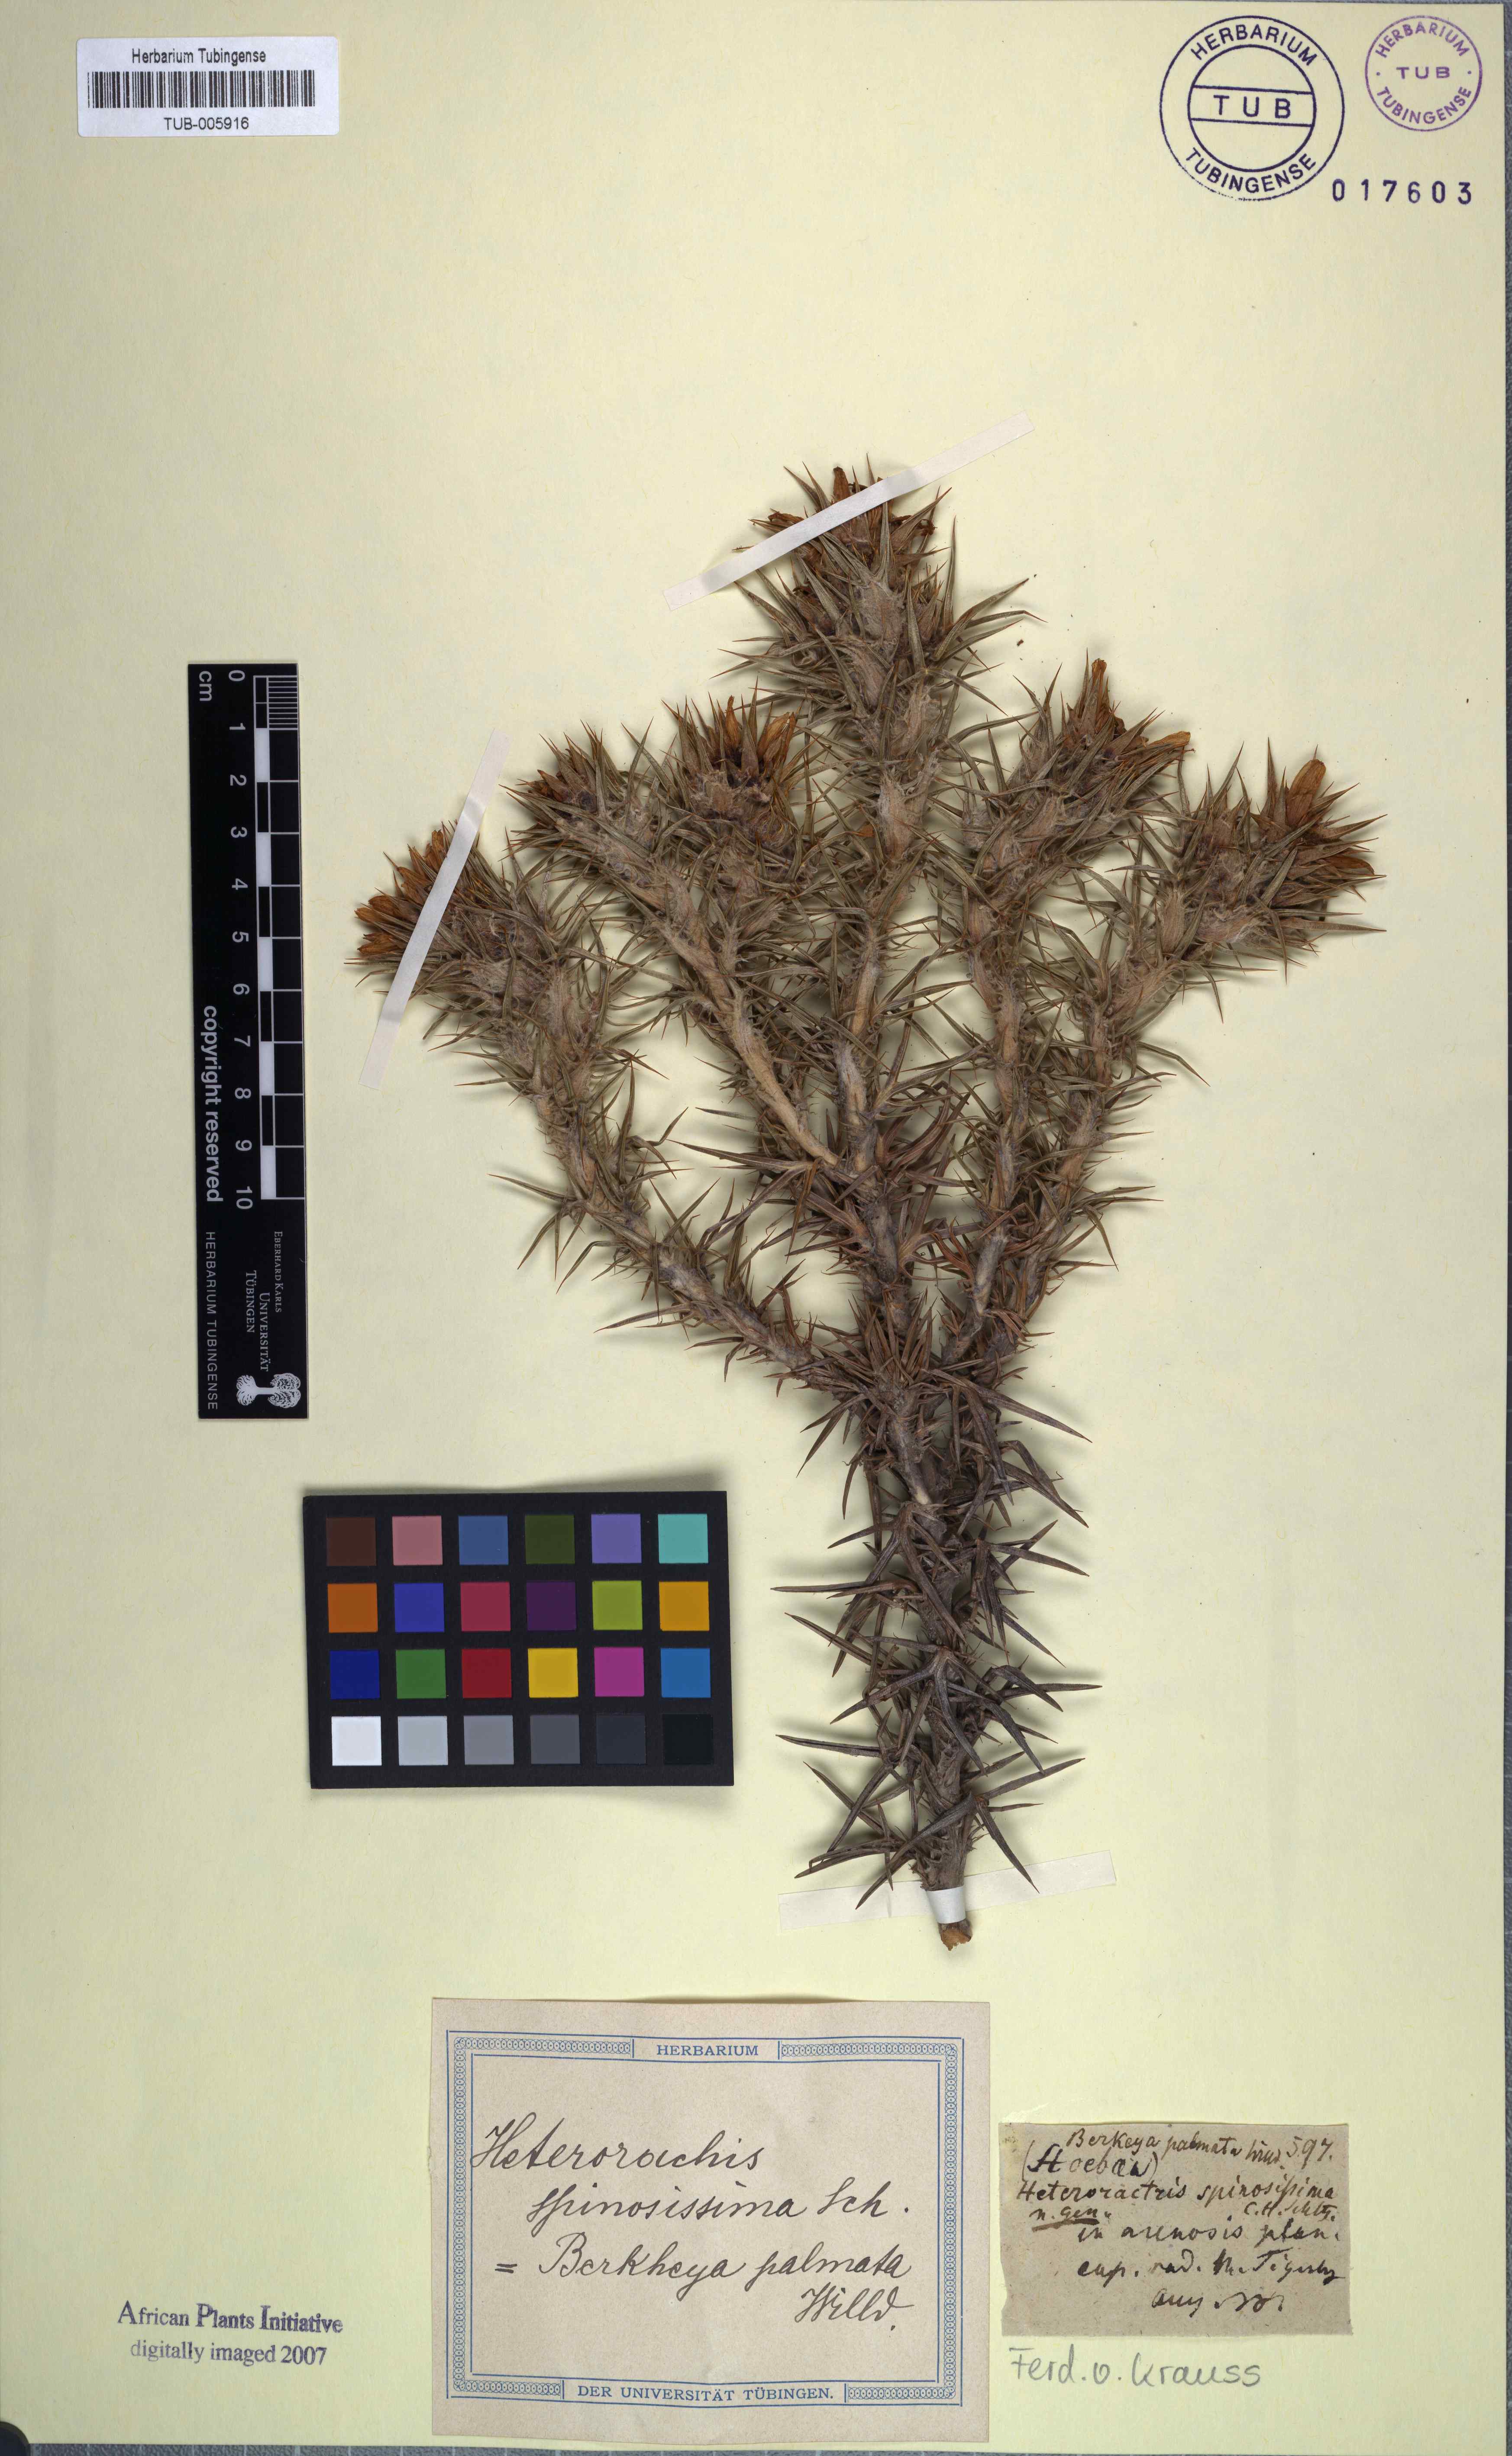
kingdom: Plantae
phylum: Tracheophyta
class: Magnoliopsida
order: Asterales
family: Asteraceae
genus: Heterorhachis
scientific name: Heterorhachis aculeata
